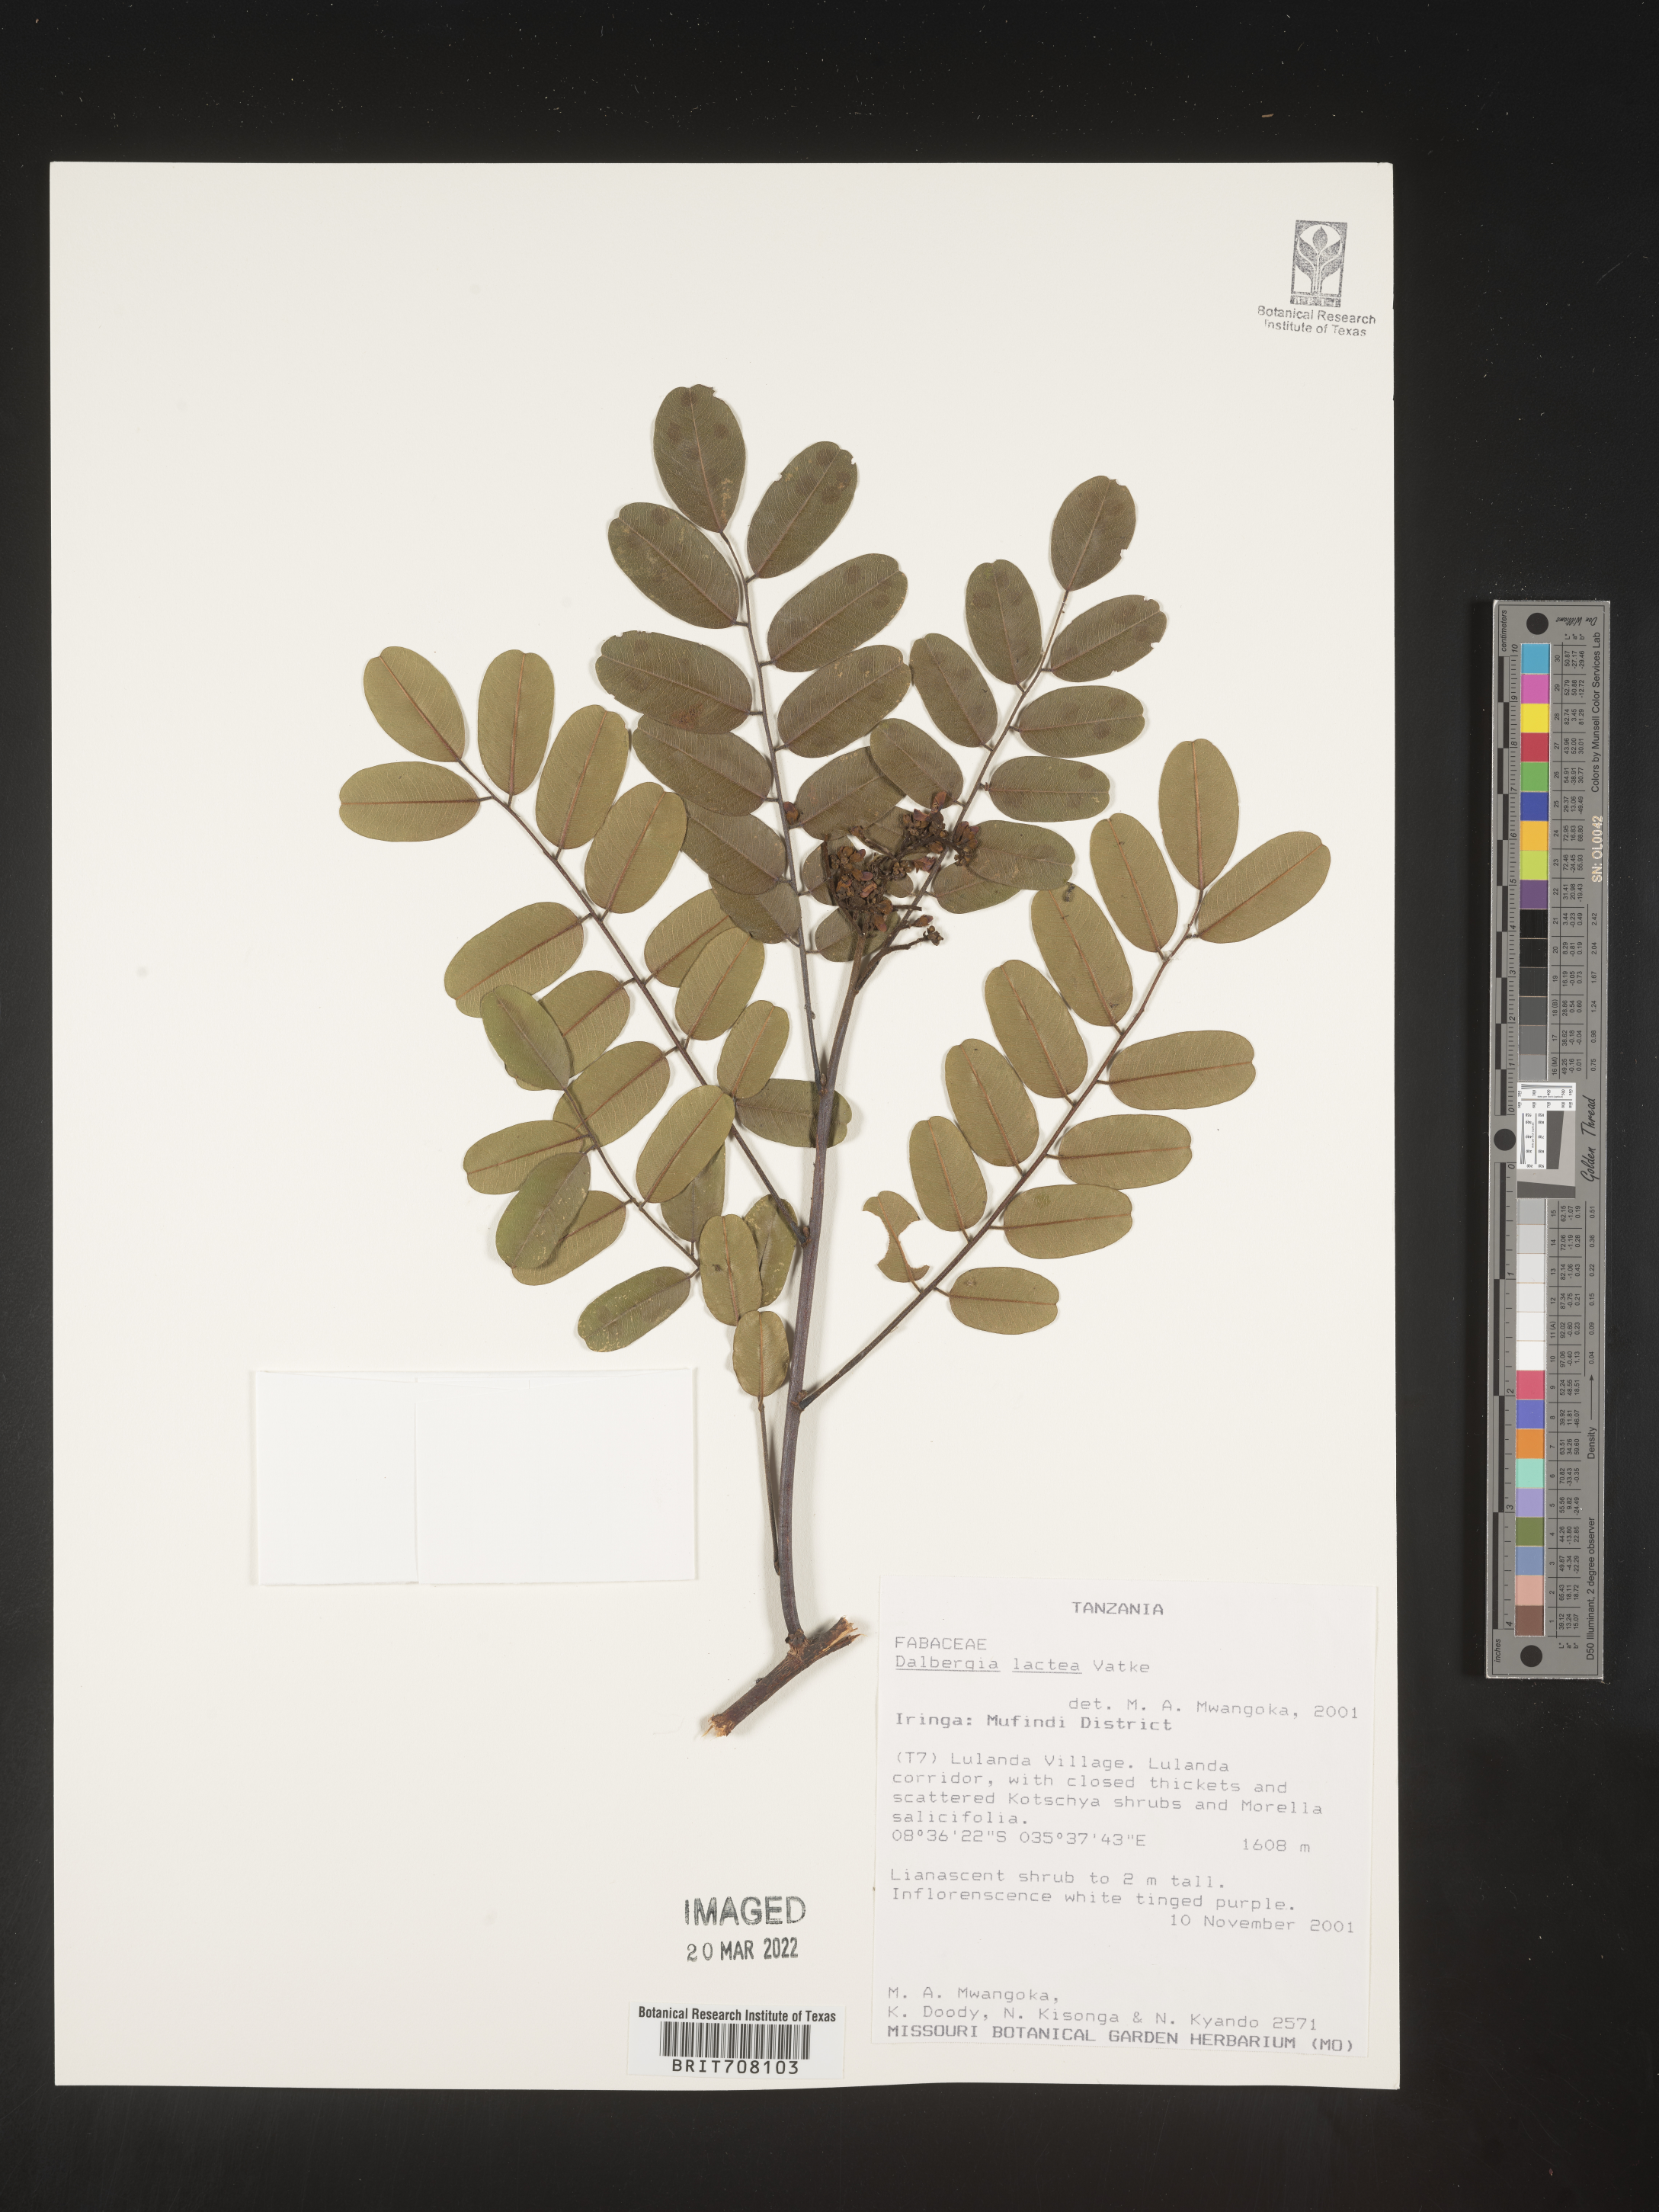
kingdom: Plantae
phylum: Tracheophyta
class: Magnoliopsida
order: Fabales
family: Fabaceae
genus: Dalbergia
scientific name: Dalbergia
